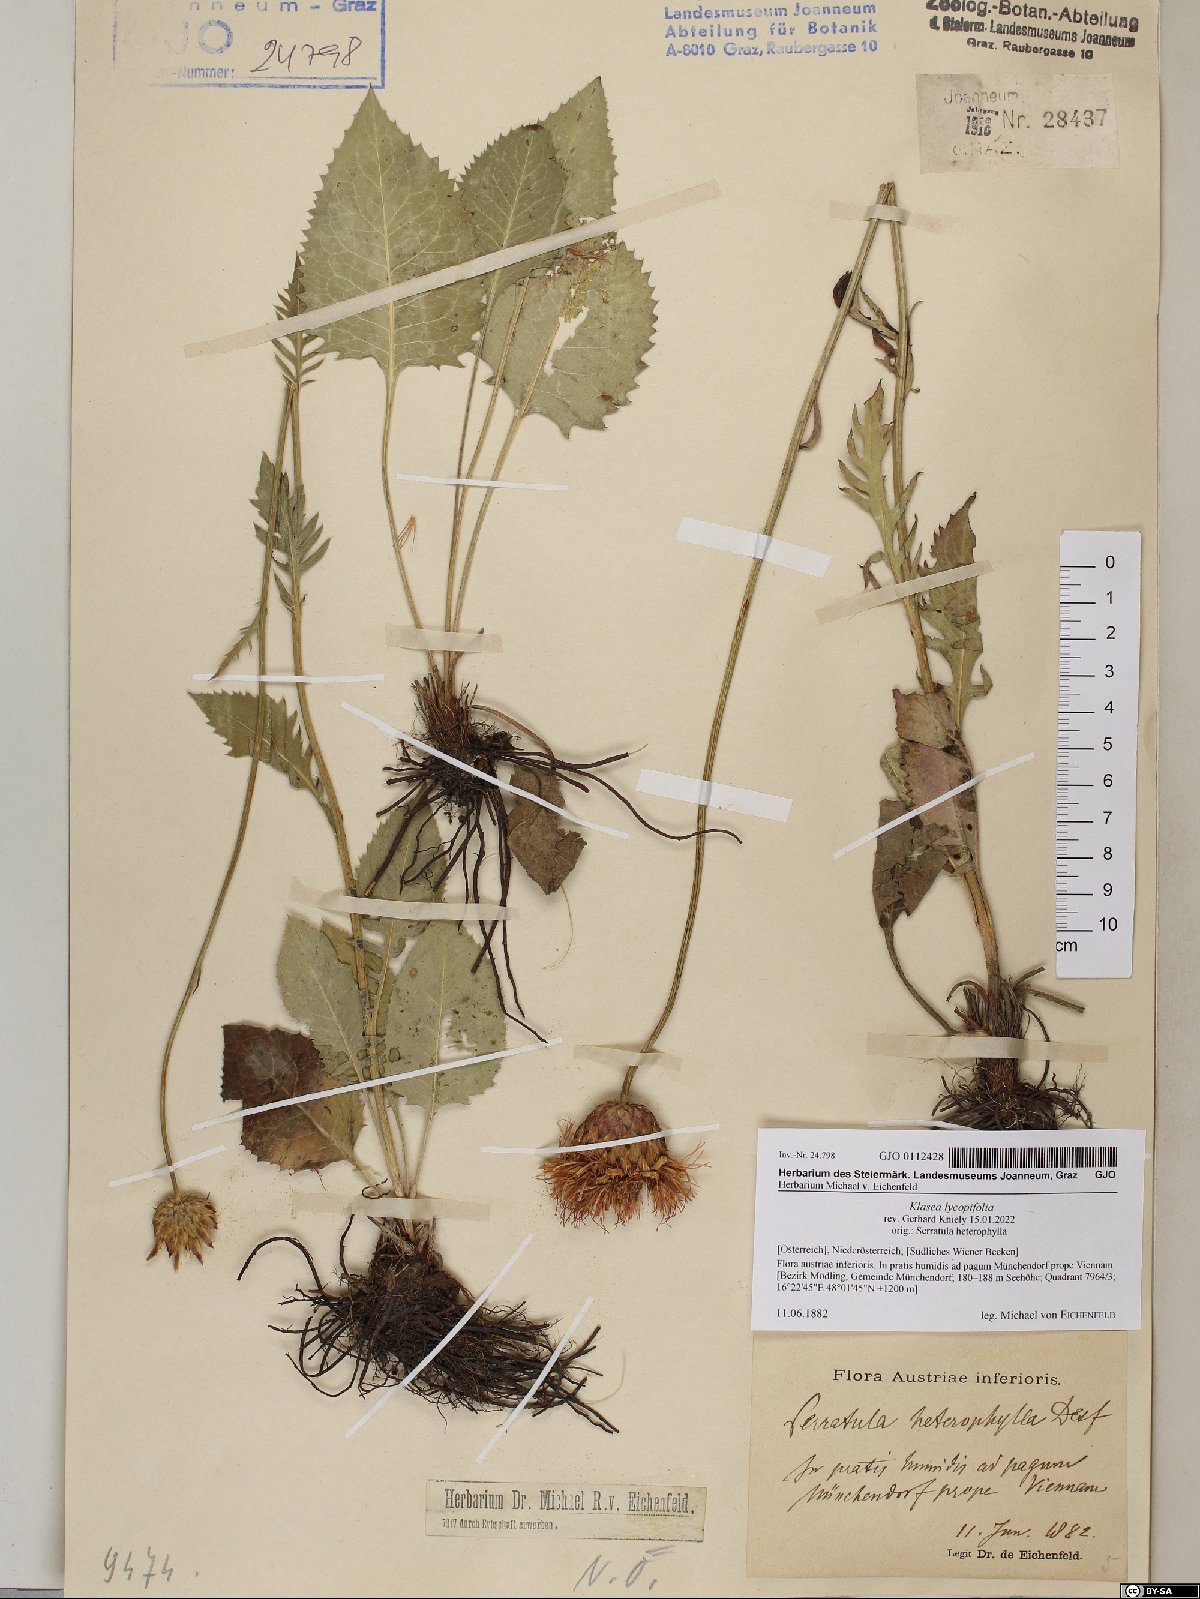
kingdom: Plantae
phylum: Tracheophyta
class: Magnoliopsida
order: Asterales
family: Asteraceae
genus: Klasea
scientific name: Klasea lycopifolia
